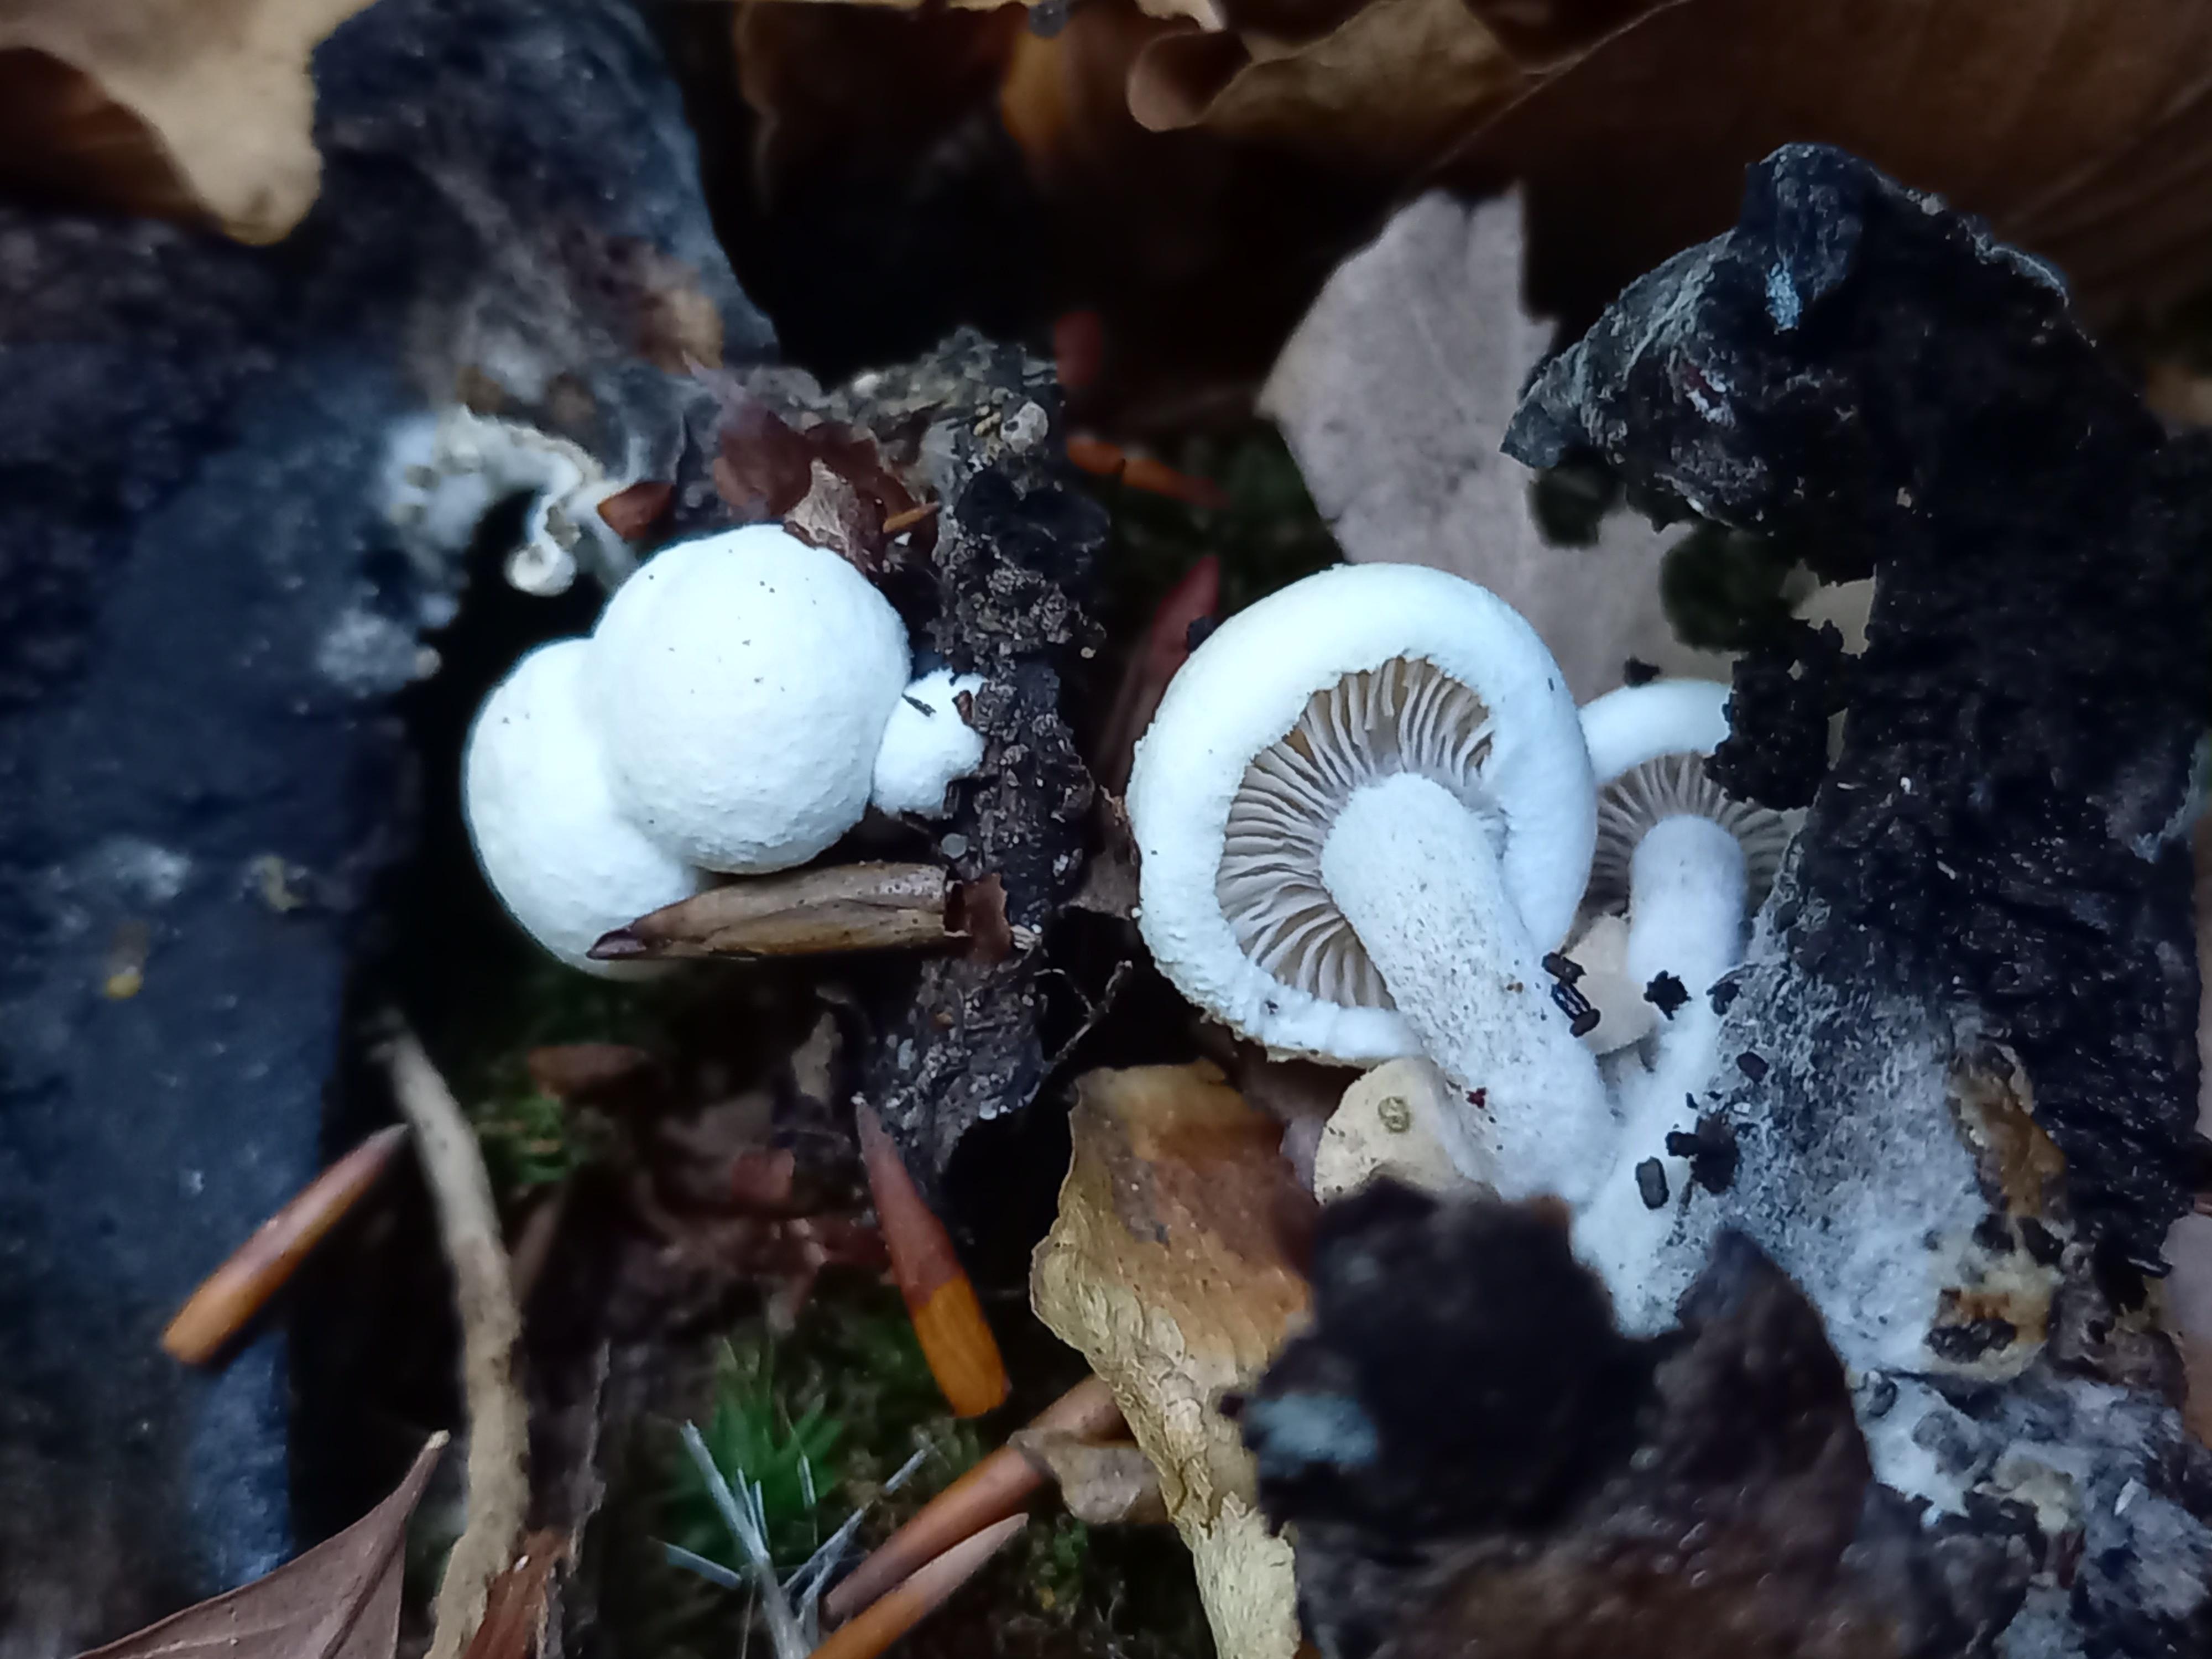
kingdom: Fungi
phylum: Basidiomycota
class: Agaricomycetes
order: Agaricales
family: Lyophyllaceae
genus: Asterophora
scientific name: Asterophora lycoperdoides
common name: brunpudret snyltehat
